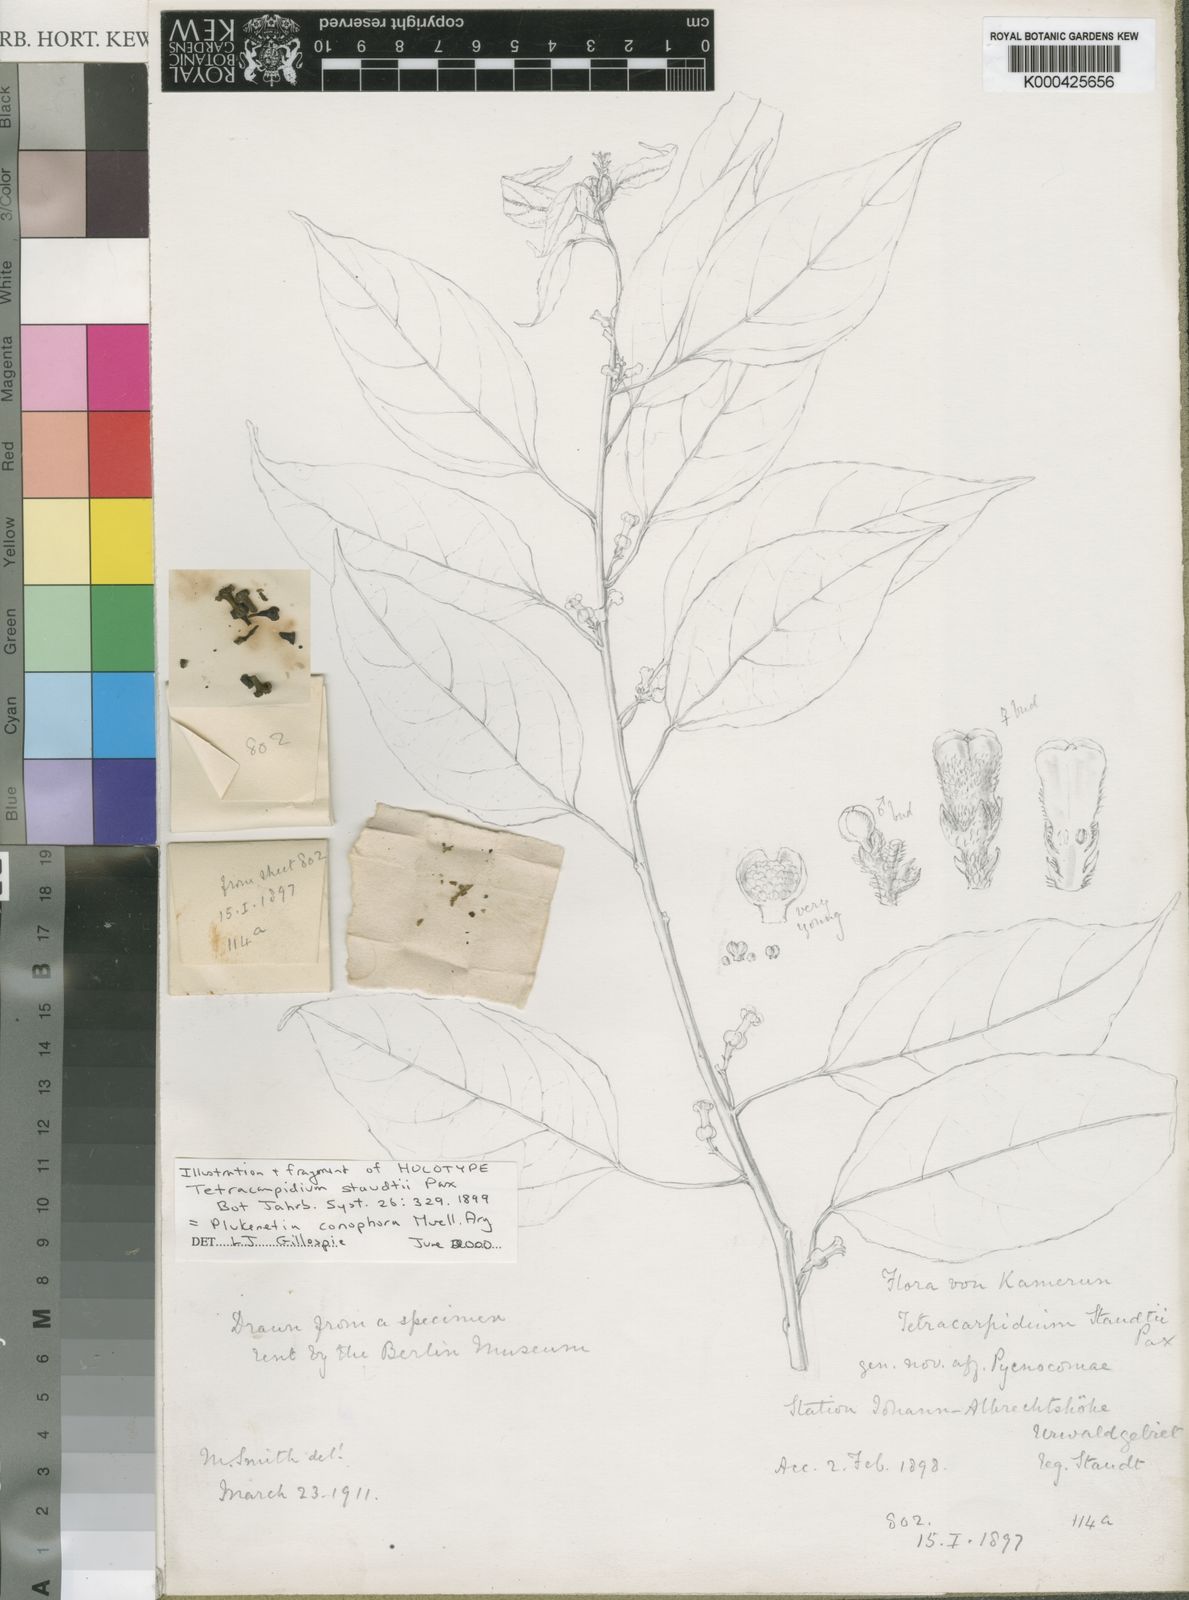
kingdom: Plantae
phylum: Tracheophyta
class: Magnoliopsida
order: Malpighiales
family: Euphorbiaceae
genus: Plukenetia
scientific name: Plukenetia
